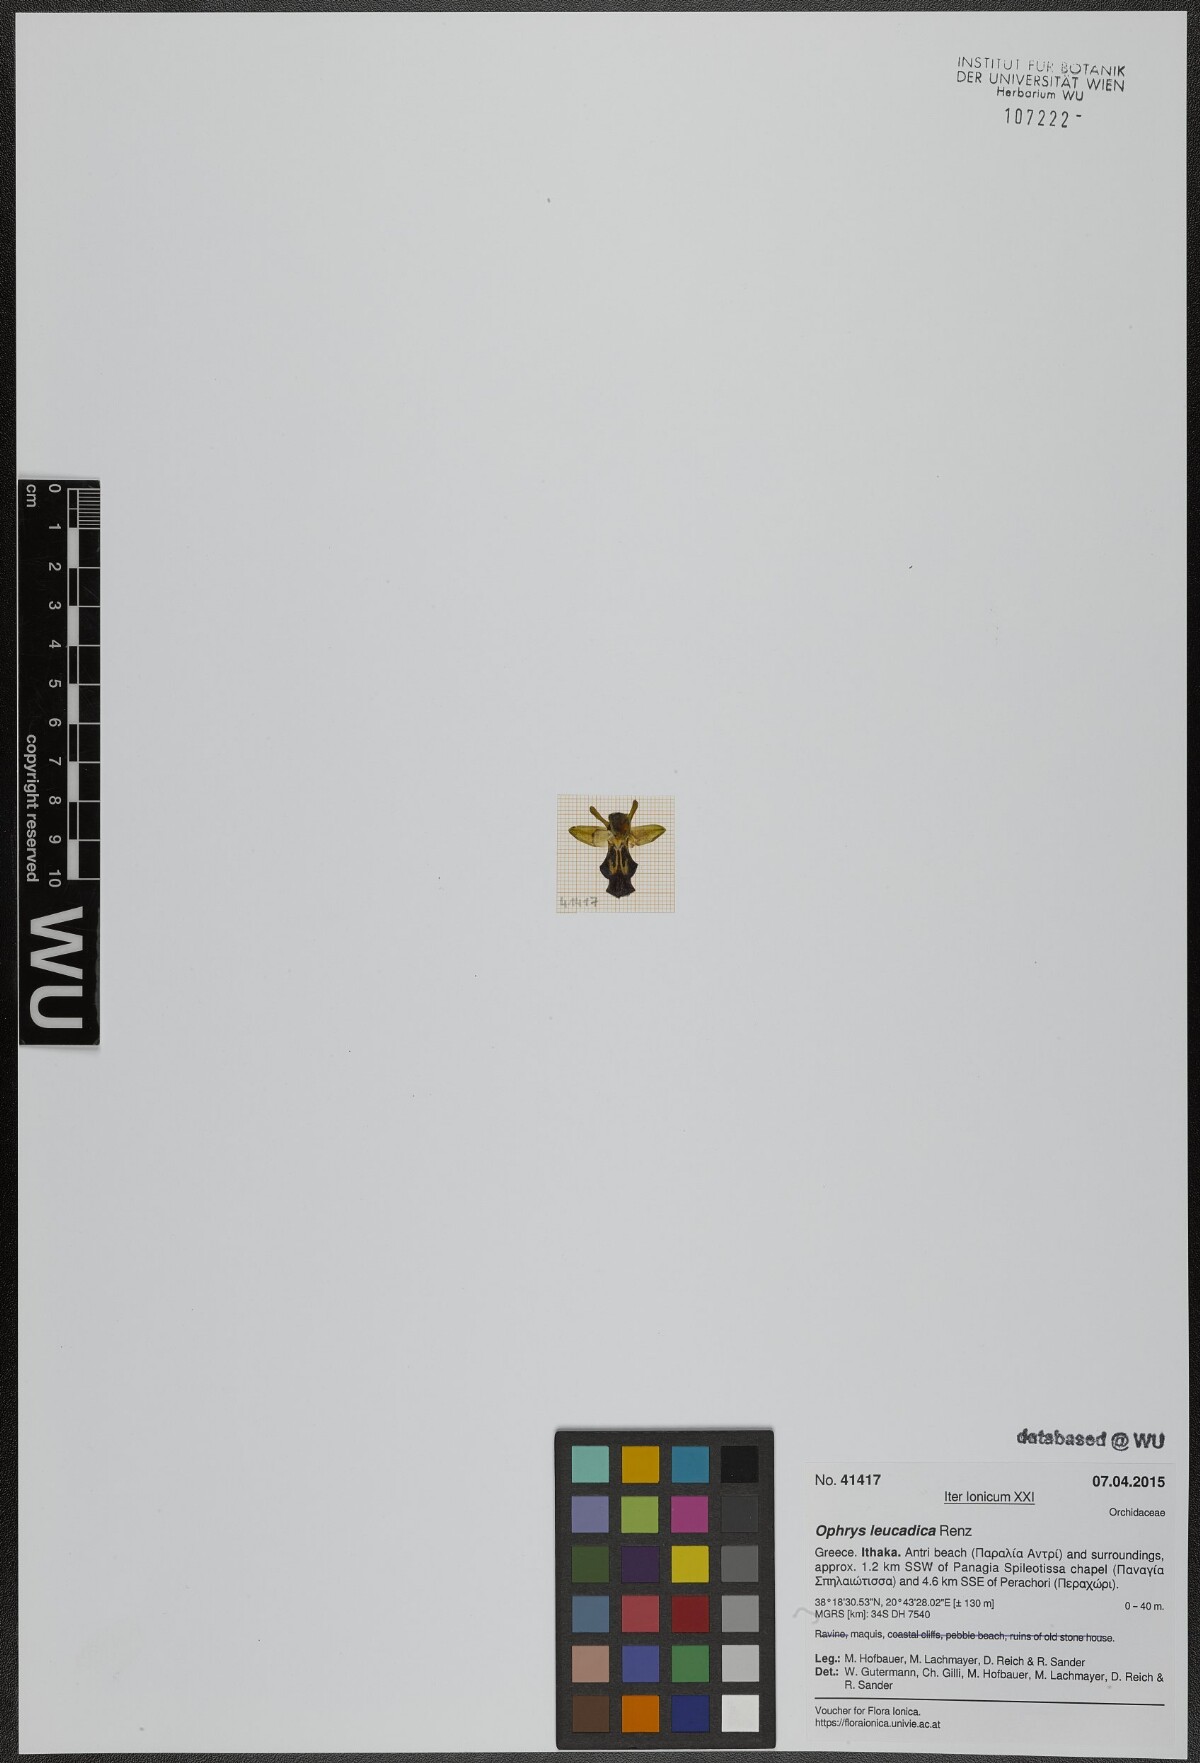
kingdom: Plantae
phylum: Tracheophyta
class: Liliopsida
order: Asparagales
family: Orchidaceae
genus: Ophrys
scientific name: Ophrys fusca
